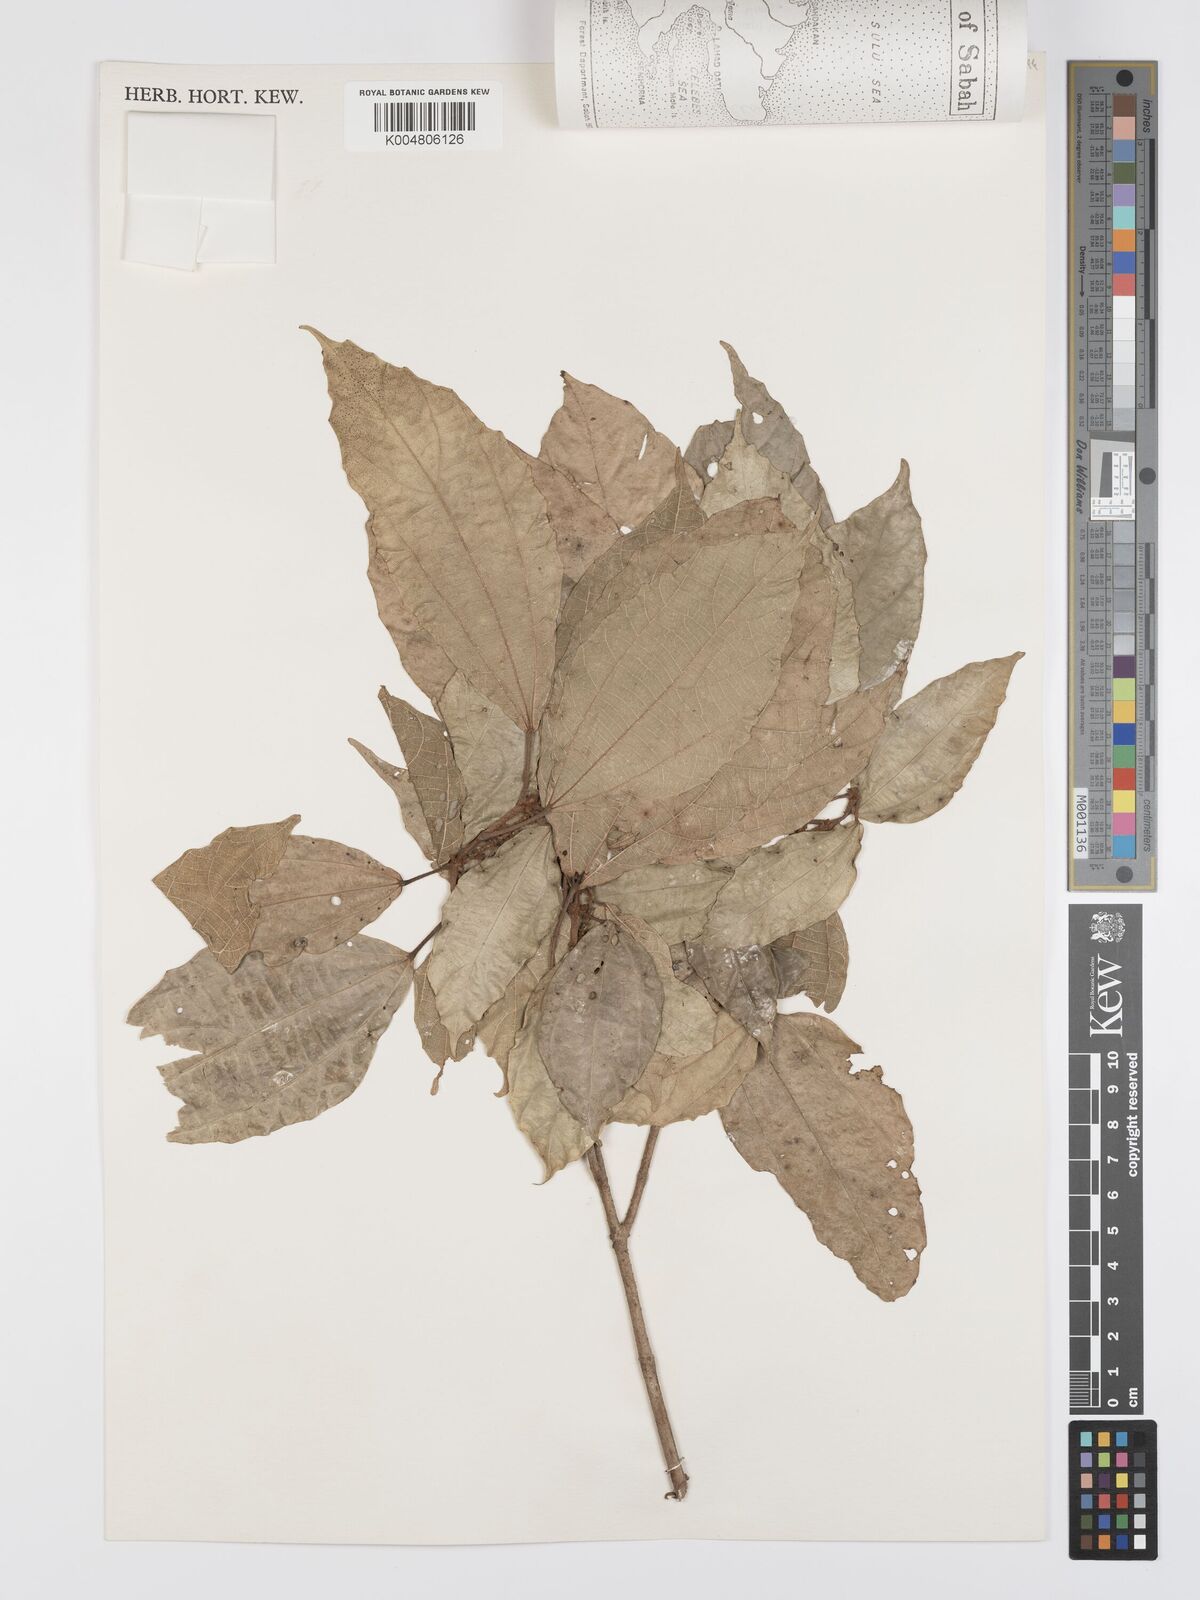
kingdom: Plantae
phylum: Tracheophyta
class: Magnoliopsida
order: Malpighiales
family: Euphorbiaceae
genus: Mallotus
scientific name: Mallotus korthalsii
